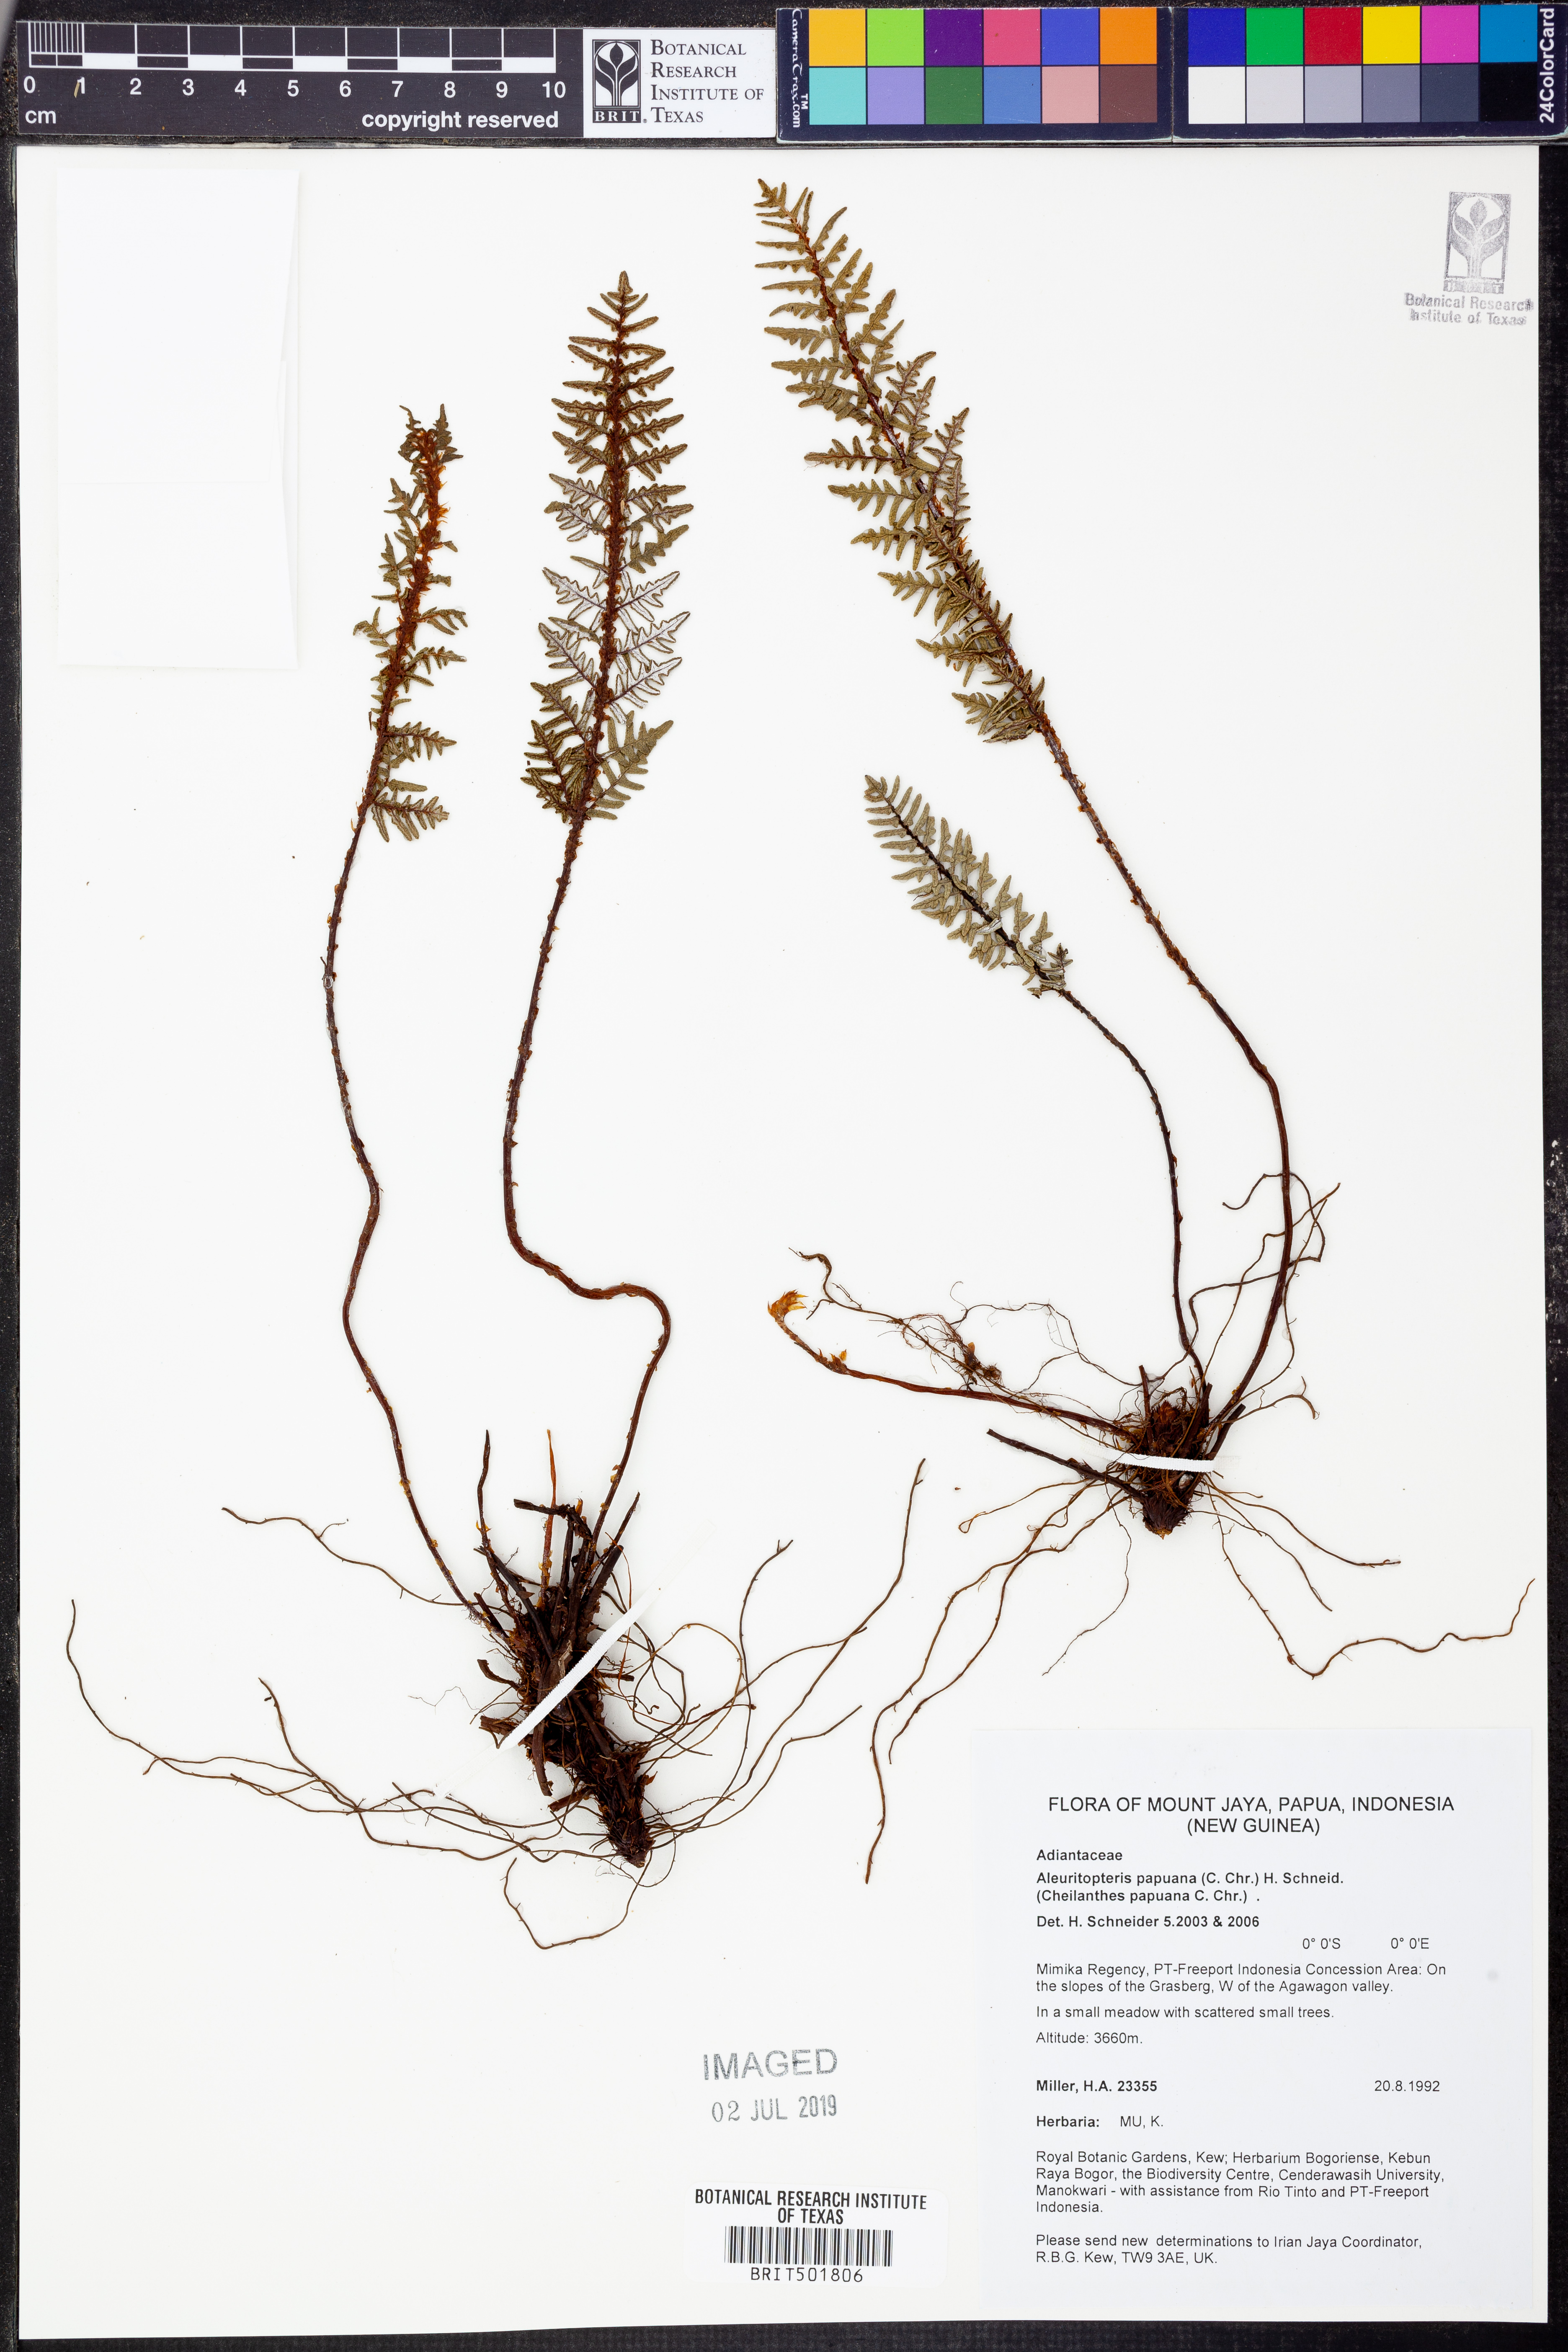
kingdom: Plantae
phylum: Tracheophyta
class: Polypodiopsida
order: Polypodiales
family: Pteridaceae
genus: Aleuritopteris
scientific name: Aleuritopteris papuana
